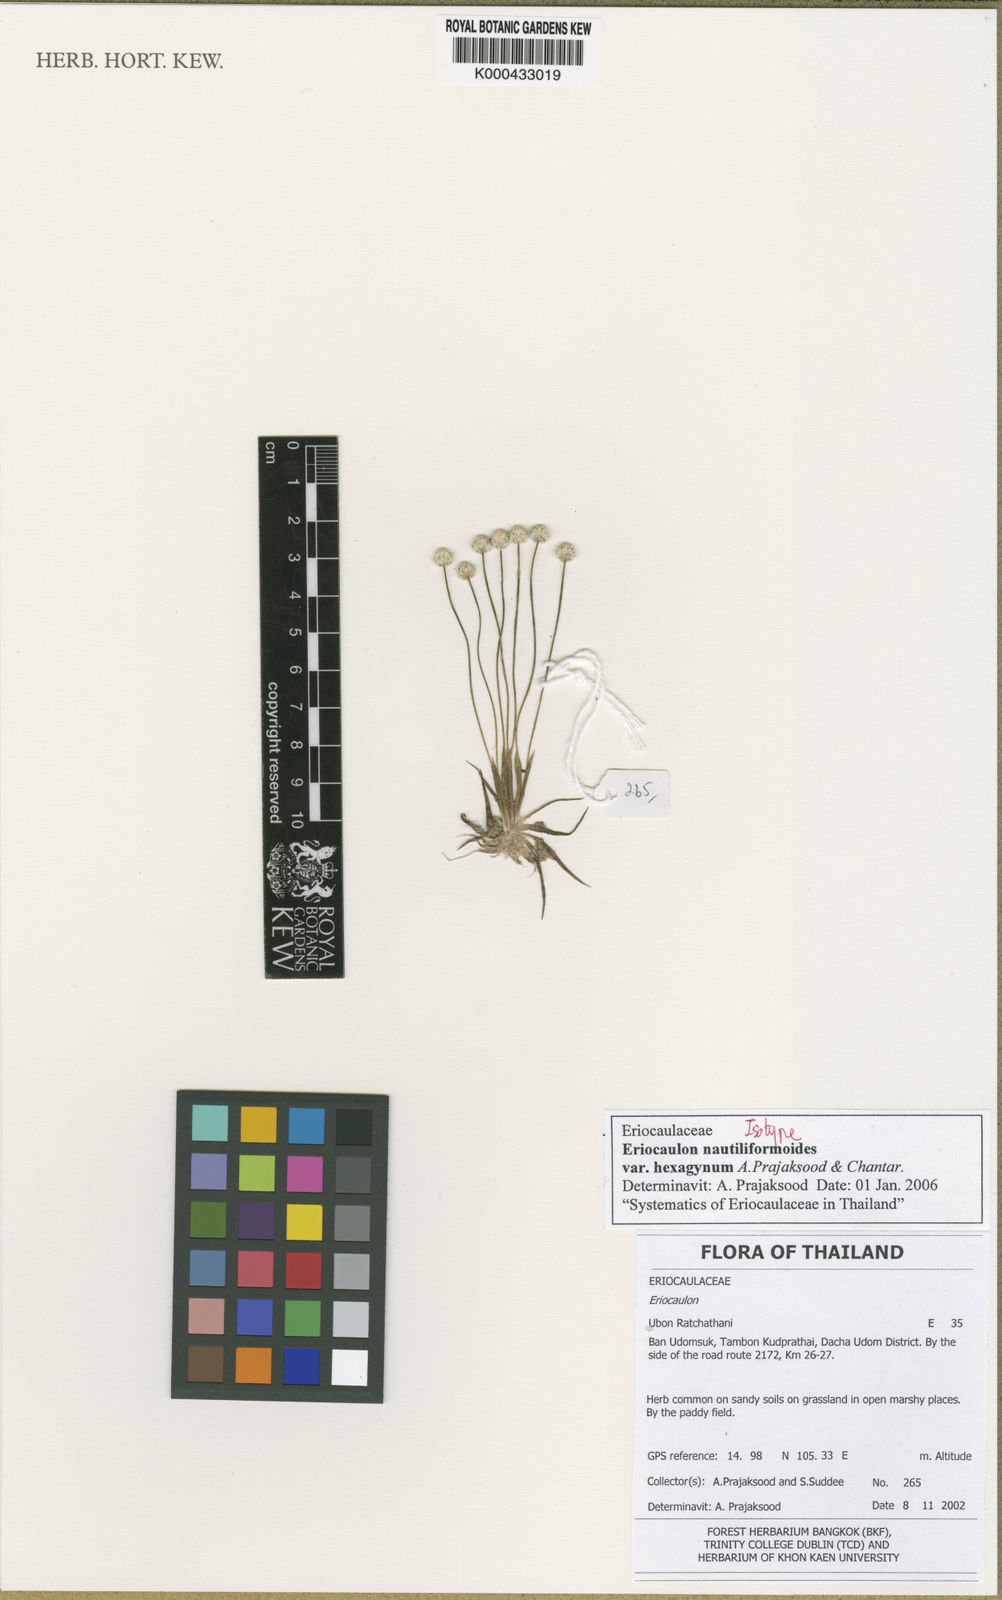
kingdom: Plantae
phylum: Tracheophyta
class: Liliopsida
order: Poales
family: Eriocaulaceae
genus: Eriocaulon
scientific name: Eriocaulon nautiliformoides
